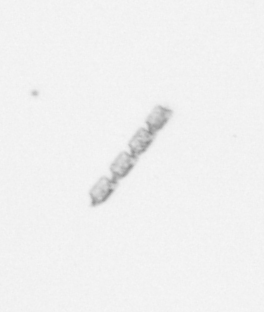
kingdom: Chromista
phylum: Ochrophyta
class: Bacillariophyceae
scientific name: Bacillariophyceae
